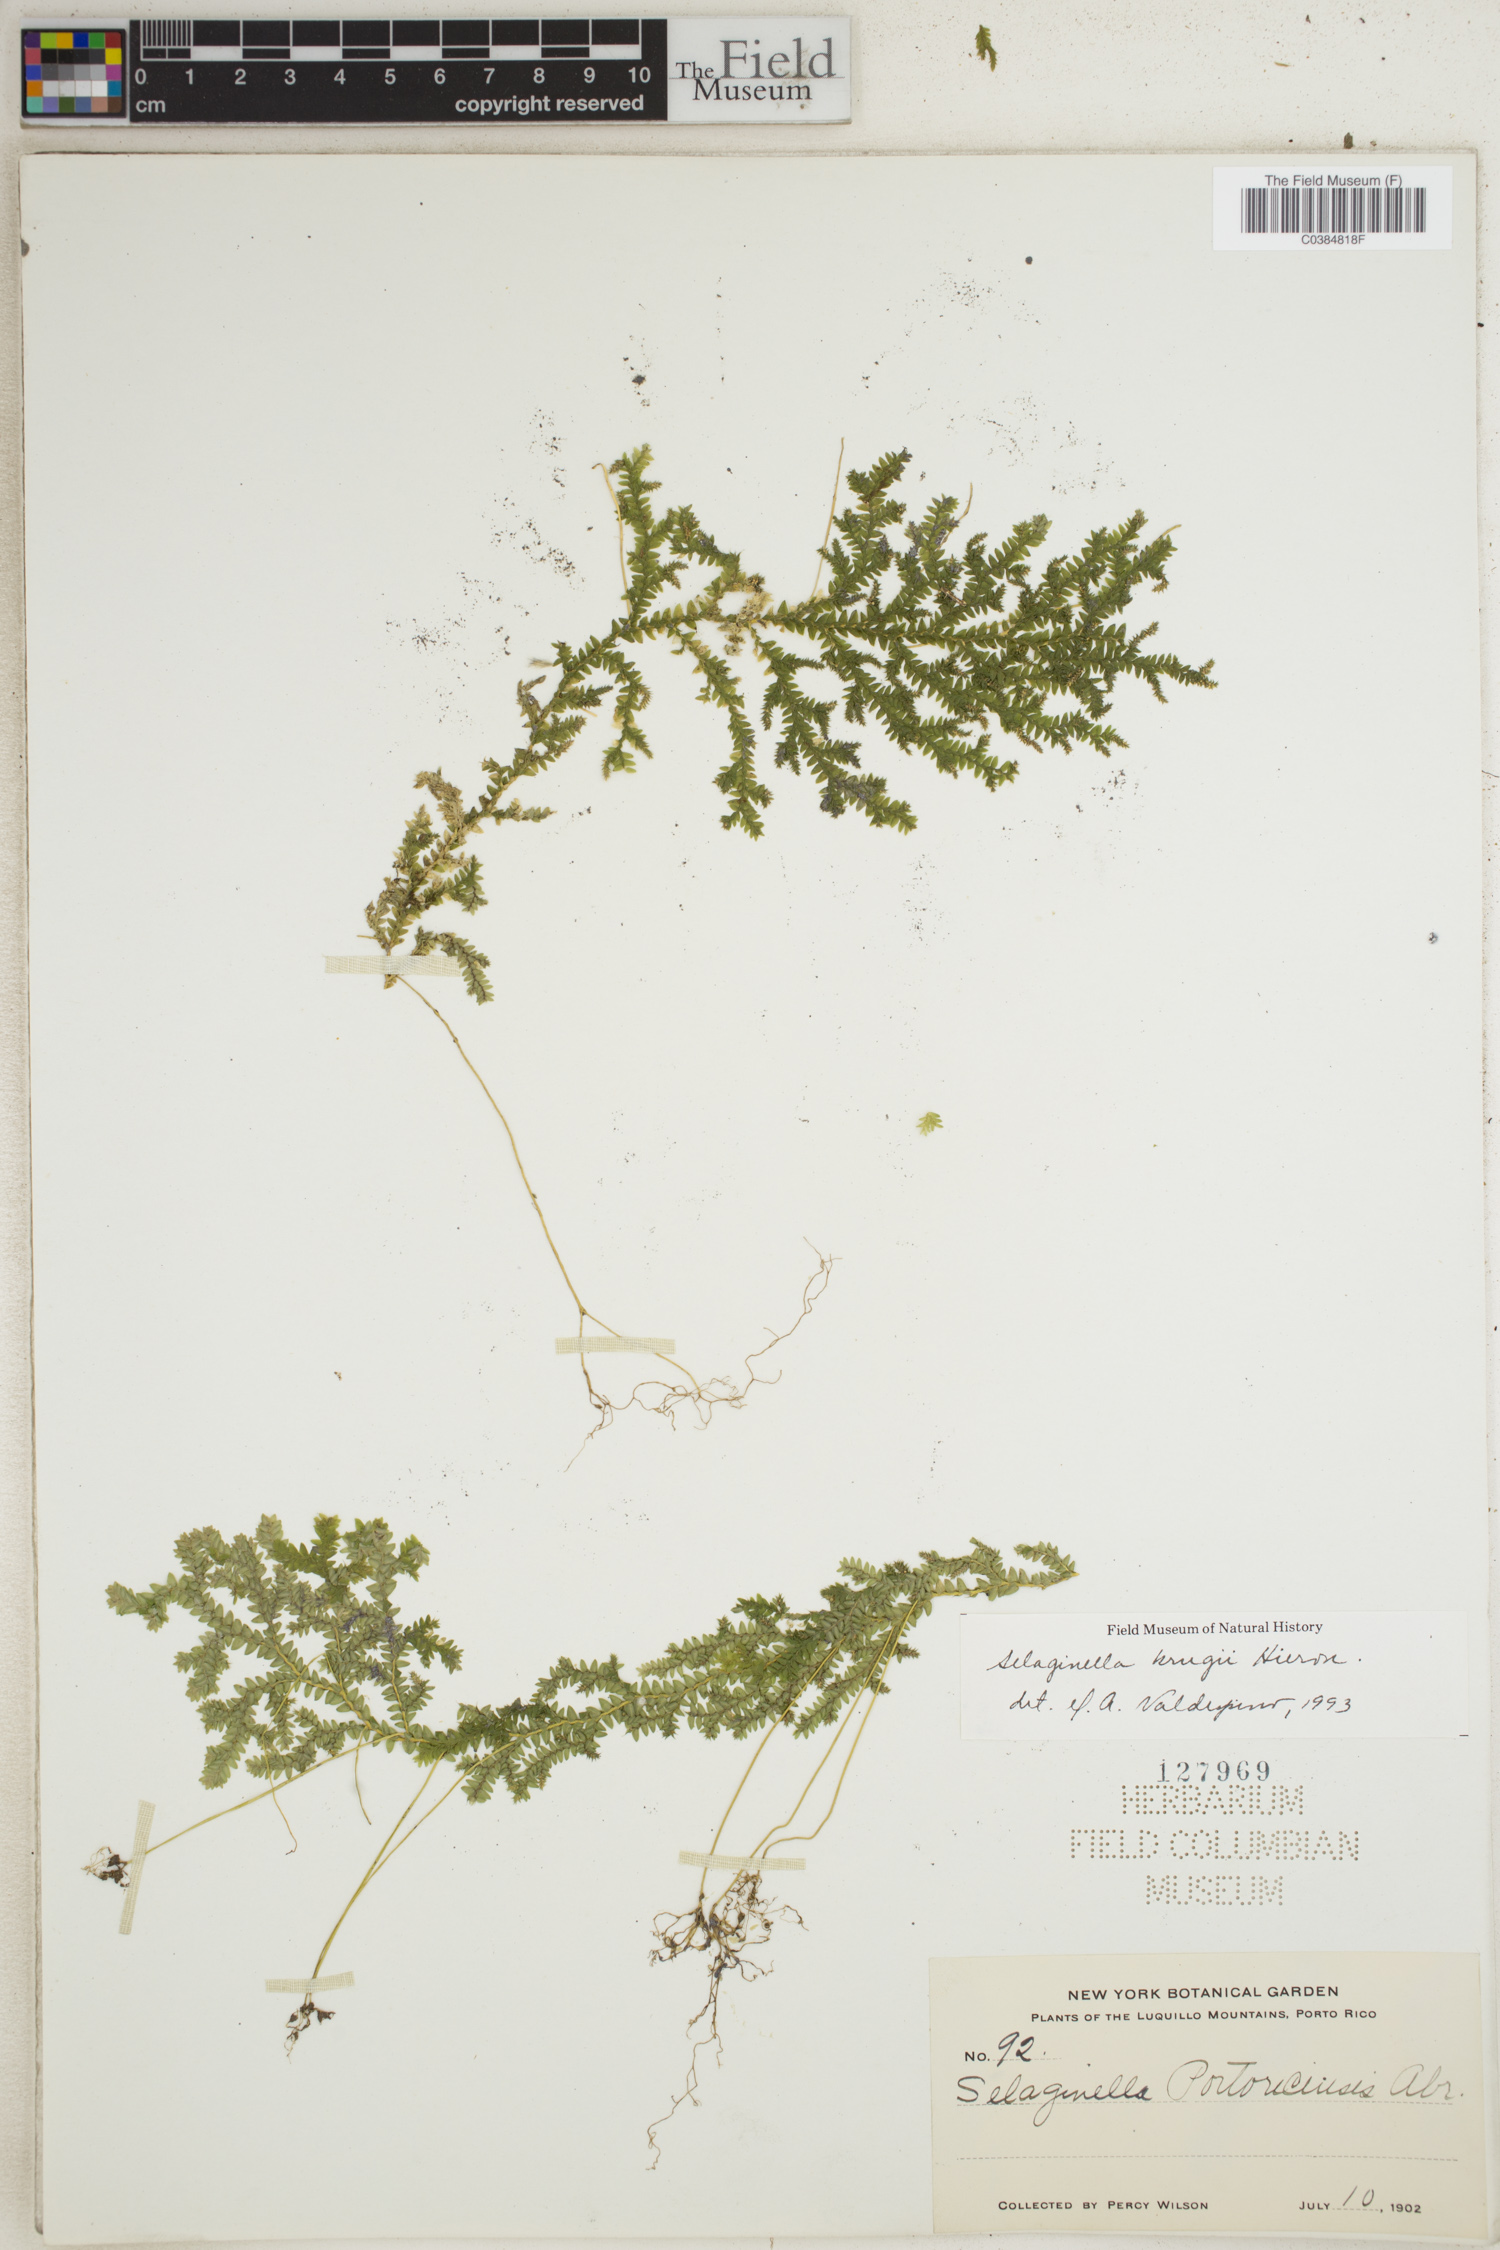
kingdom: Plantae
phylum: Tracheophyta
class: Lycopodiopsida
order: Selaginellales
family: Selaginellaceae
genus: Selaginella
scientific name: Selaginella krugii
